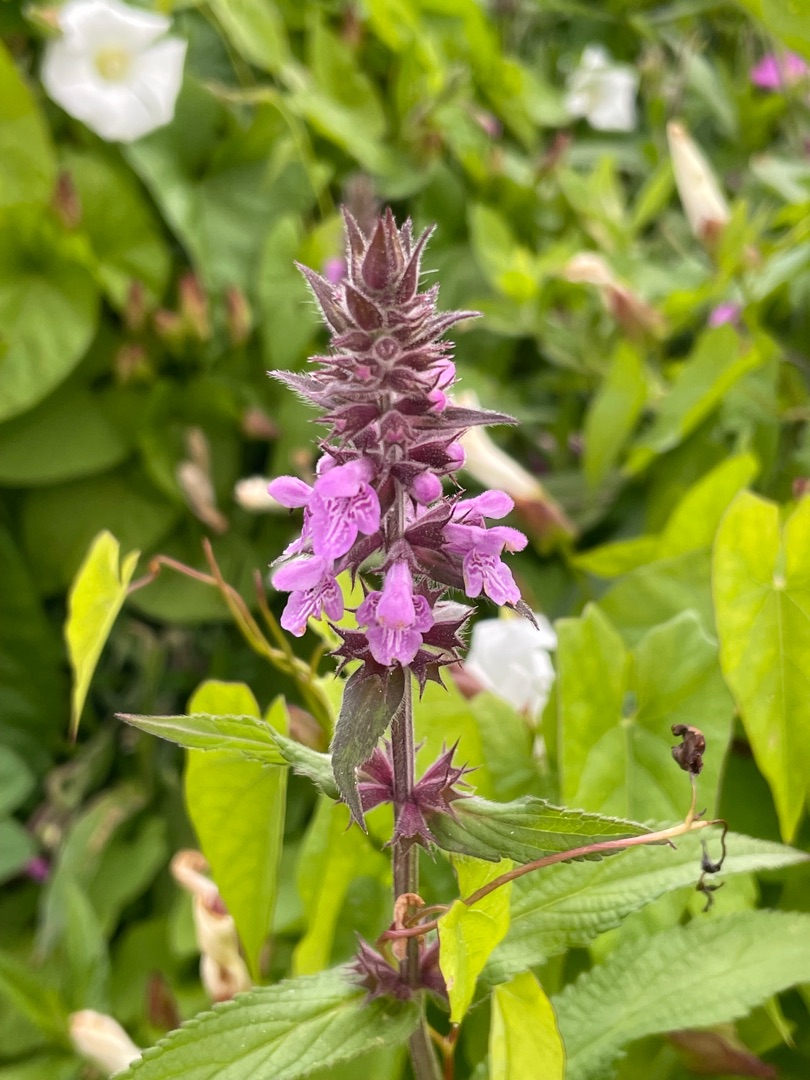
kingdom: Plantae
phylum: Tracheophyta
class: Magnoliopsida
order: Lamiales
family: Lamiaceae
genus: Stachys
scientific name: Stachys palustris
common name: Kær-galtetand
